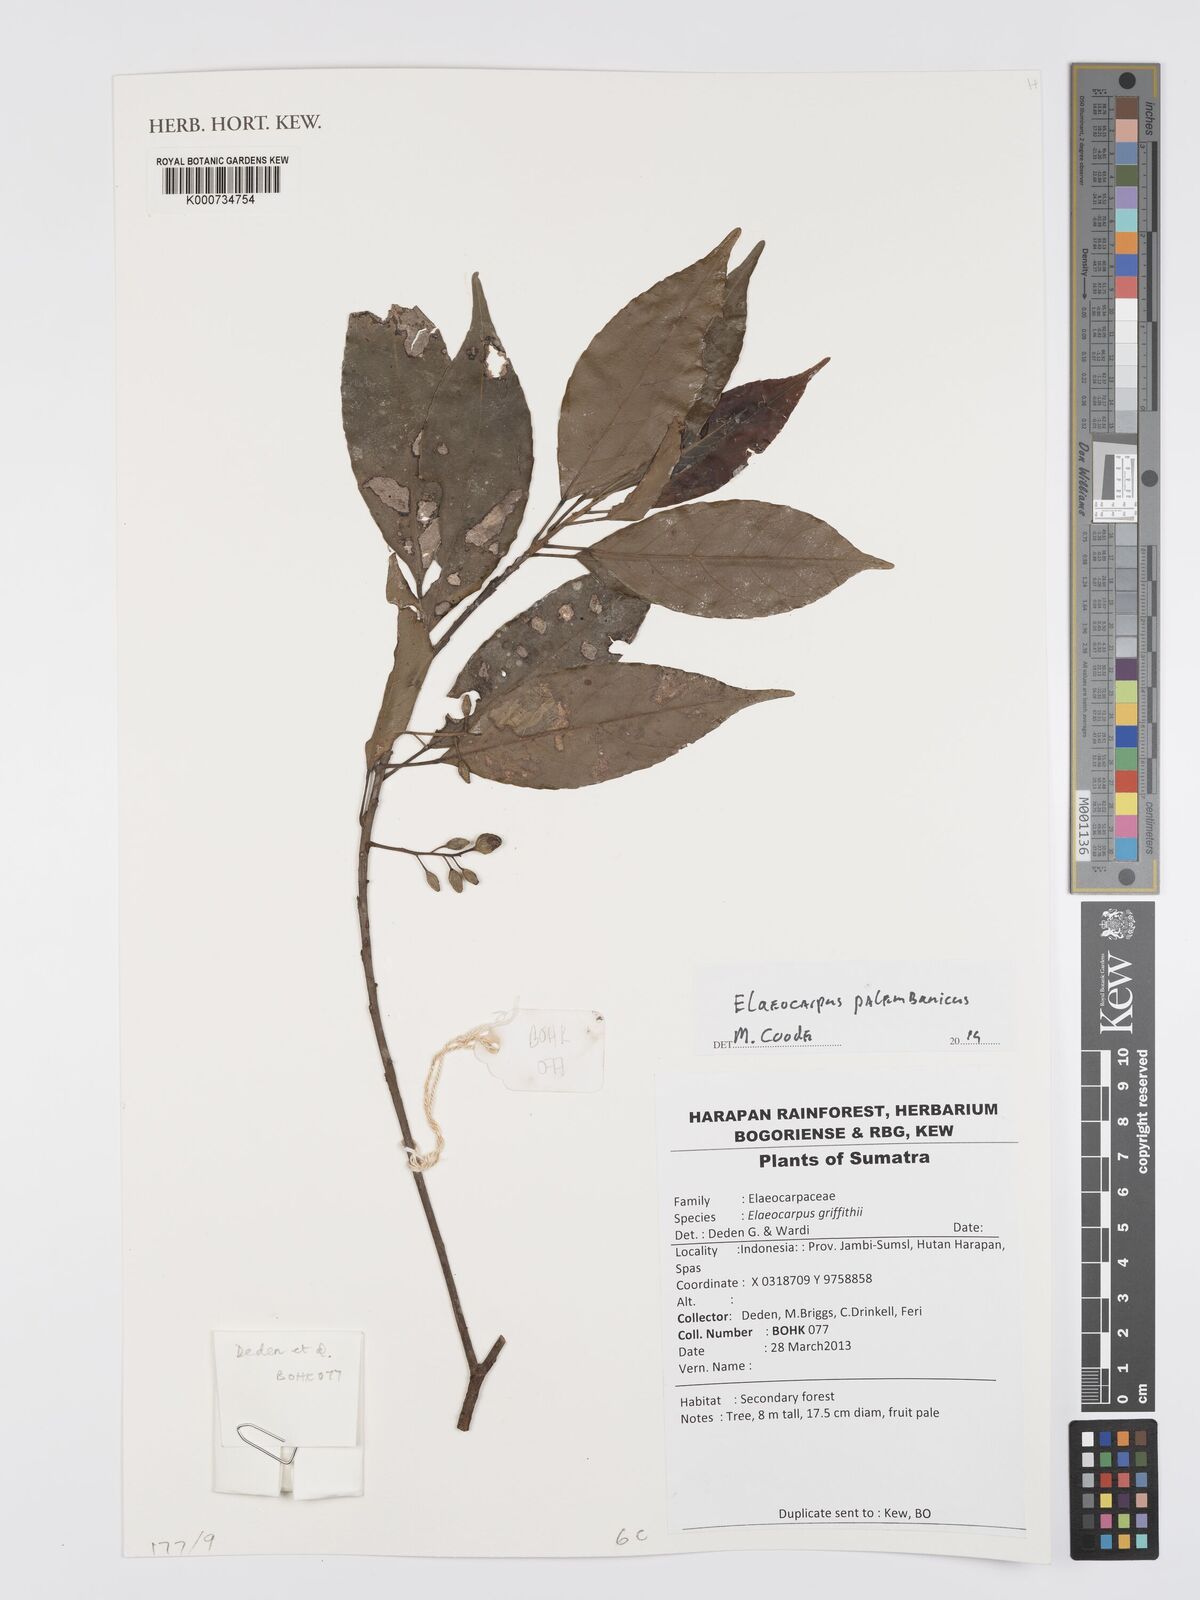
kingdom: Plantae
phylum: Tracheophyta
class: Magnoliopsida
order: Oxalidales
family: Elaeocarpaceae
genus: Elaeocarpus
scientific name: Elaeocarpus palembanicus
